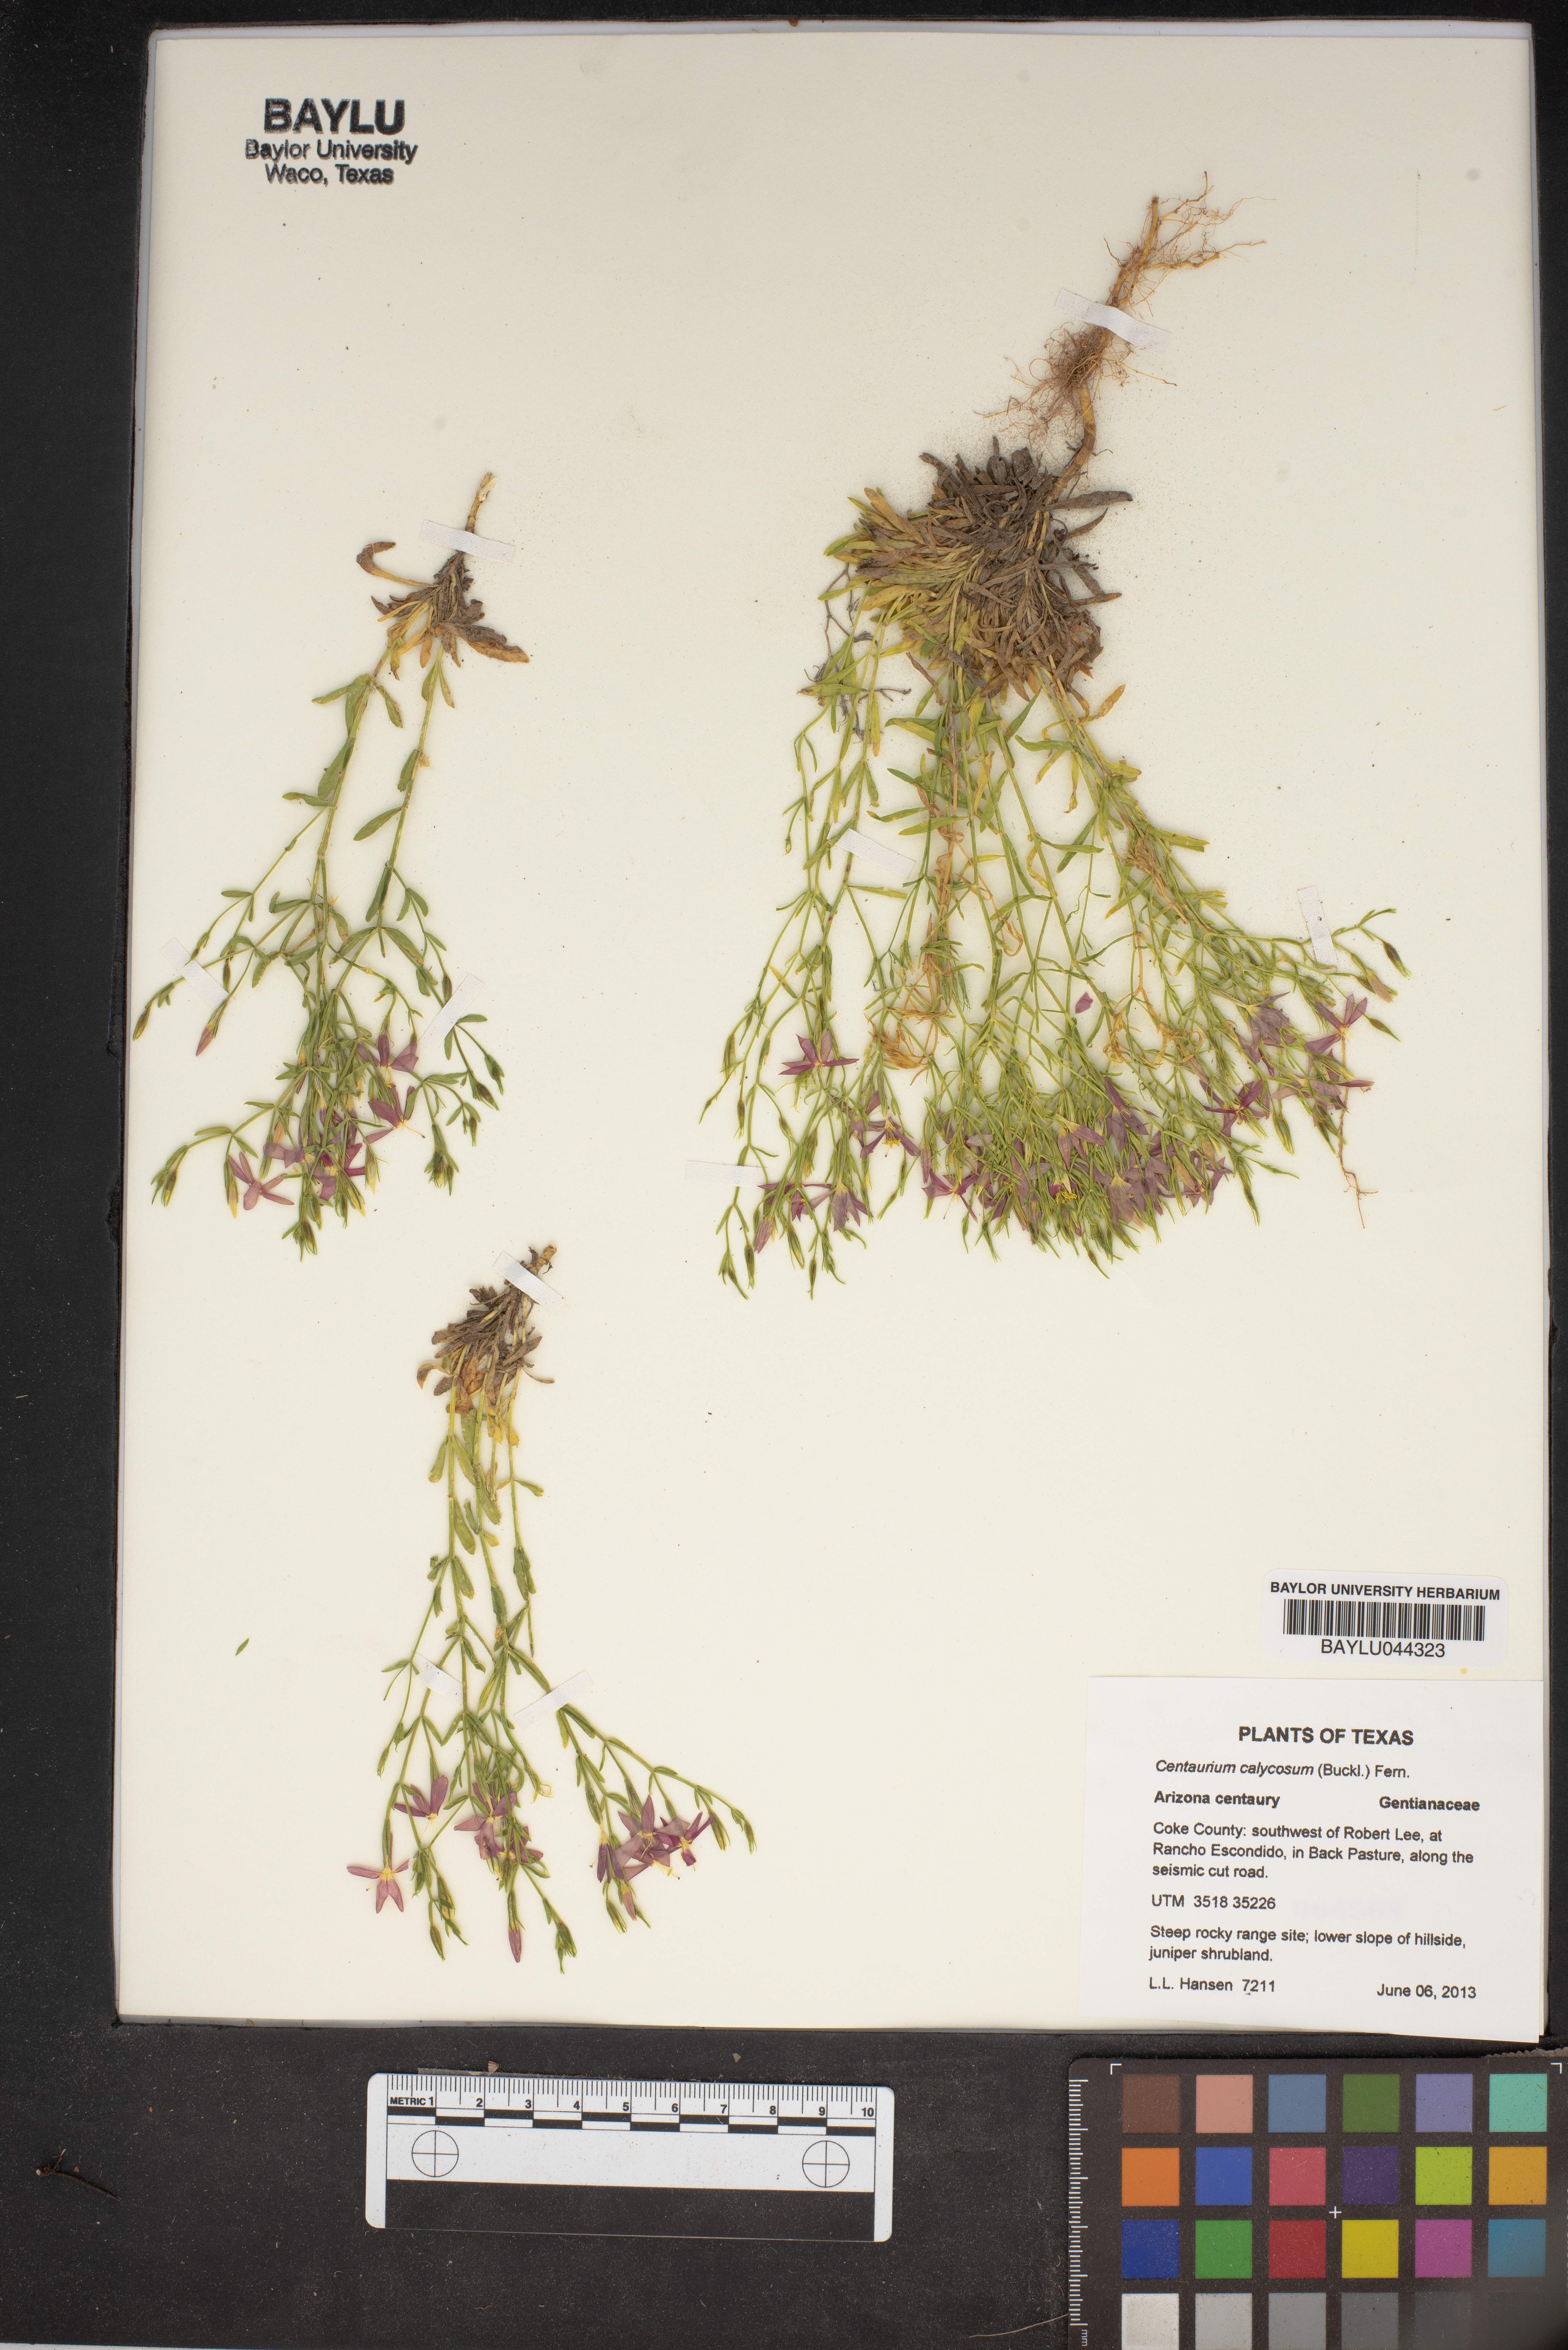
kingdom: Plantae
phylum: Tracheophyta
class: Magnoliopsida
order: Gentianales
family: Gentianaceae
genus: Zeltnera
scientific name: Zeltnera calycosa
